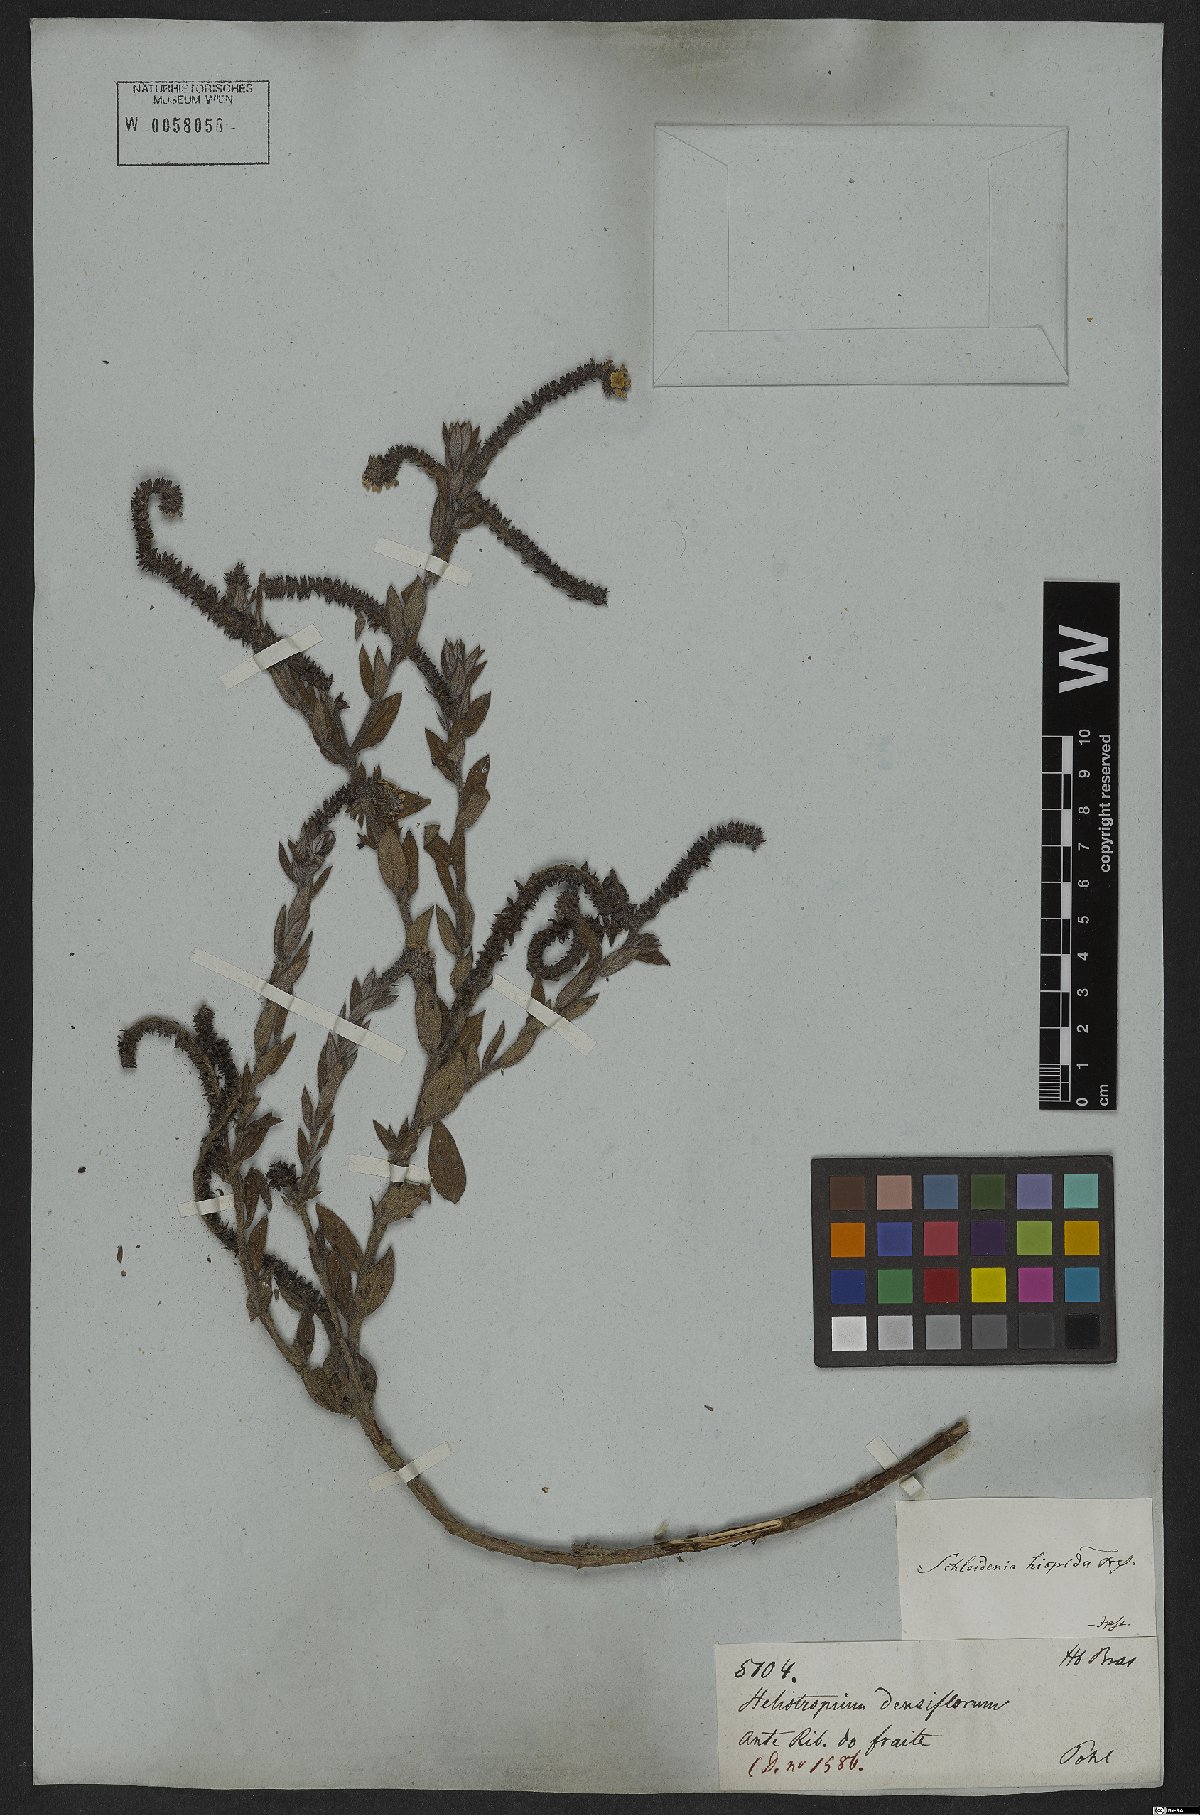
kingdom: Plantae
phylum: Tracheophyta
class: Magnoliopsida
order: Boraginales
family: Heliotropiaceae
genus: Euploca
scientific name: Euploca humilis
